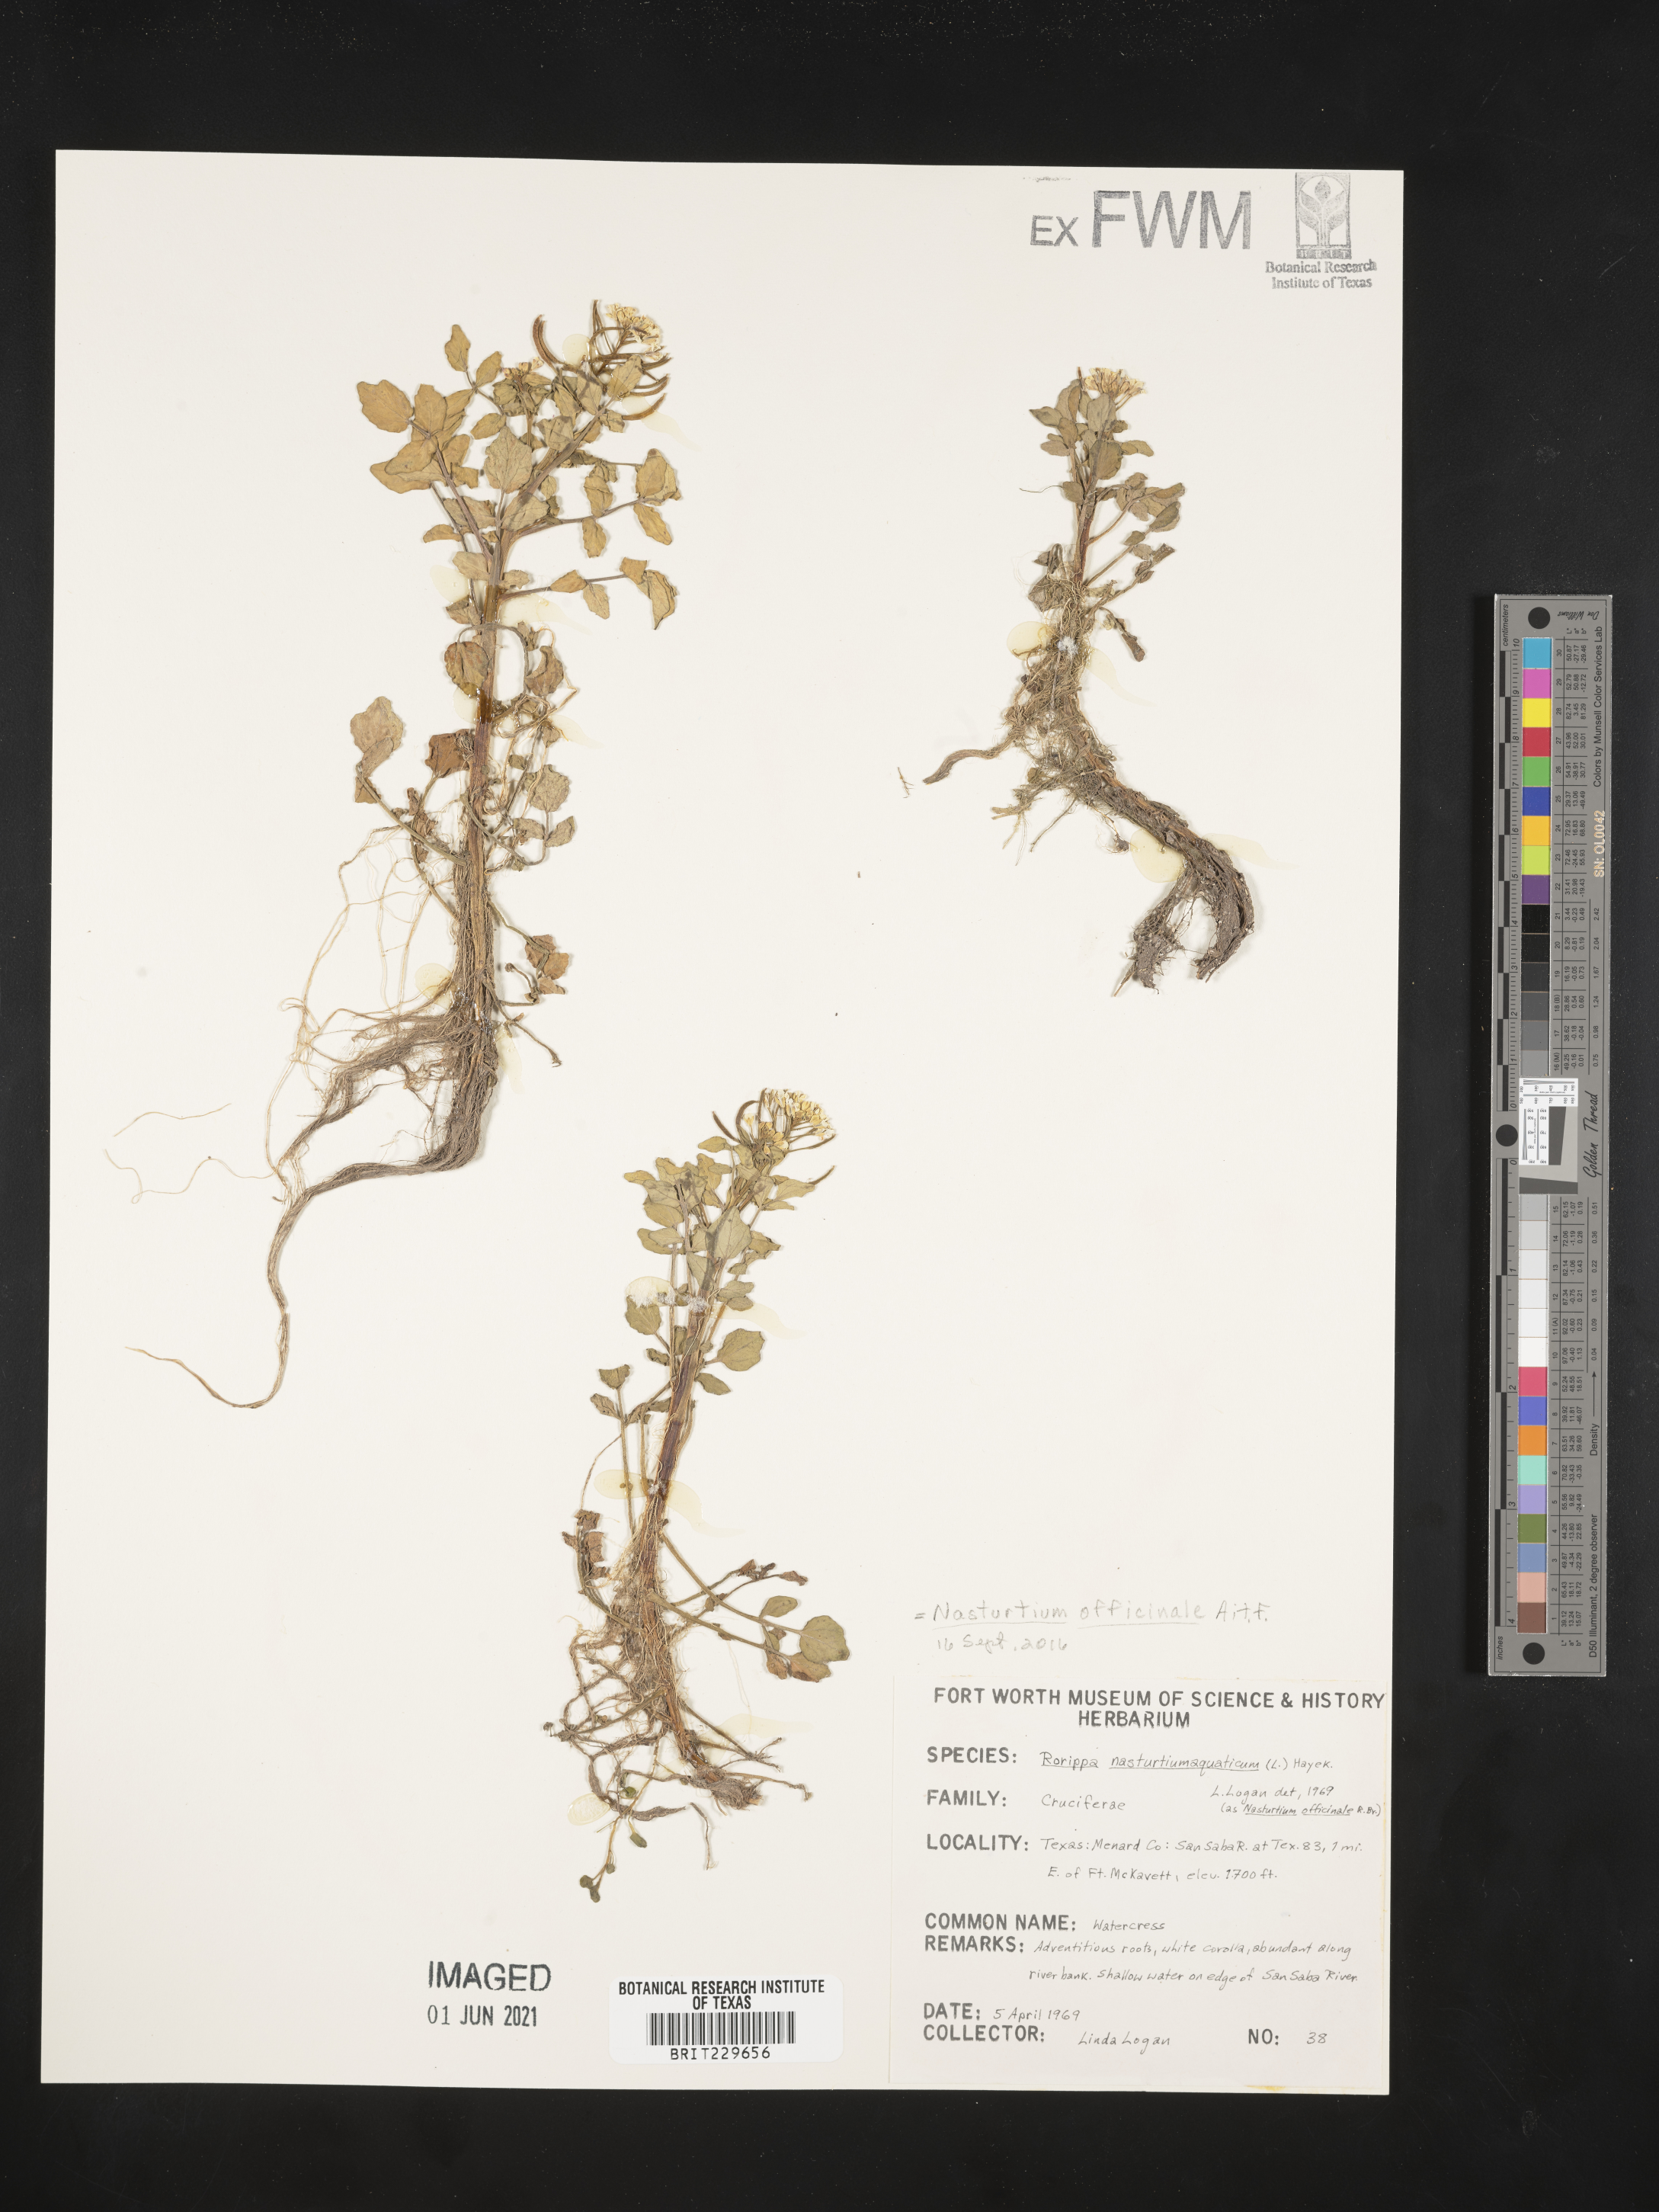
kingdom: Plantae
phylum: Tracheophyta
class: Magnoliopsida
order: Brassicales
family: Brassicaceae
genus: Nasturtium
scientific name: Nasturtium officinale
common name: Watercress
